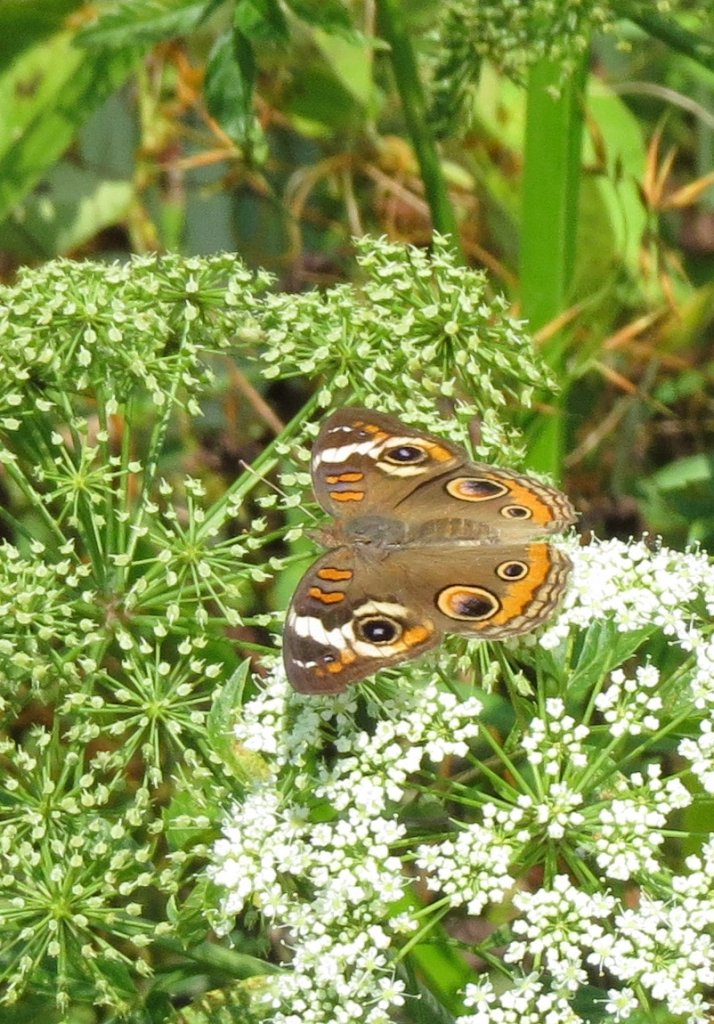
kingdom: Animalia
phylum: Arthropoda
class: Insecta
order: Lepidoptera
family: Nymphalidae
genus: Junonia
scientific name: Junonia coenia
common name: Common Buckeye
